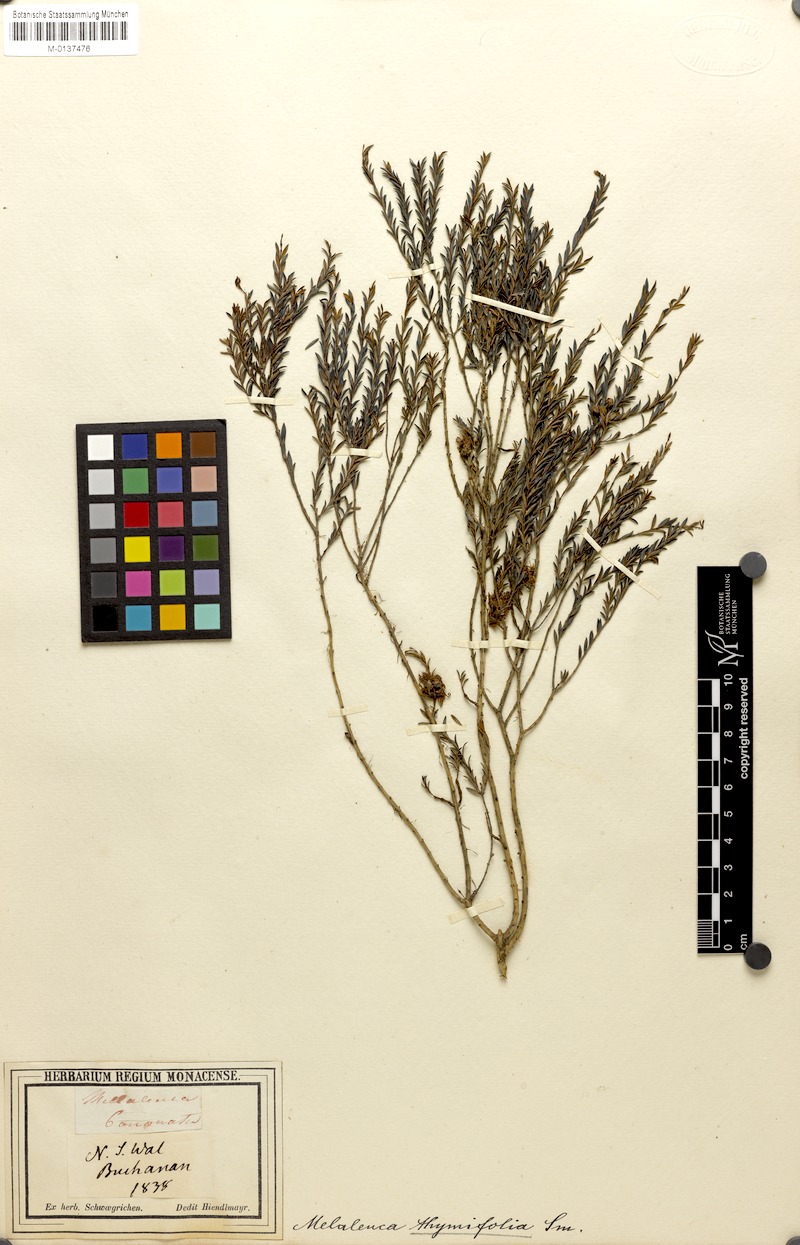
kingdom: Plantae
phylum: Tracheophyta
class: Magnoliopsida
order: Myrtales
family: Myrtaceae
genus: Melaleuca
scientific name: Melaleuca thymifolia
